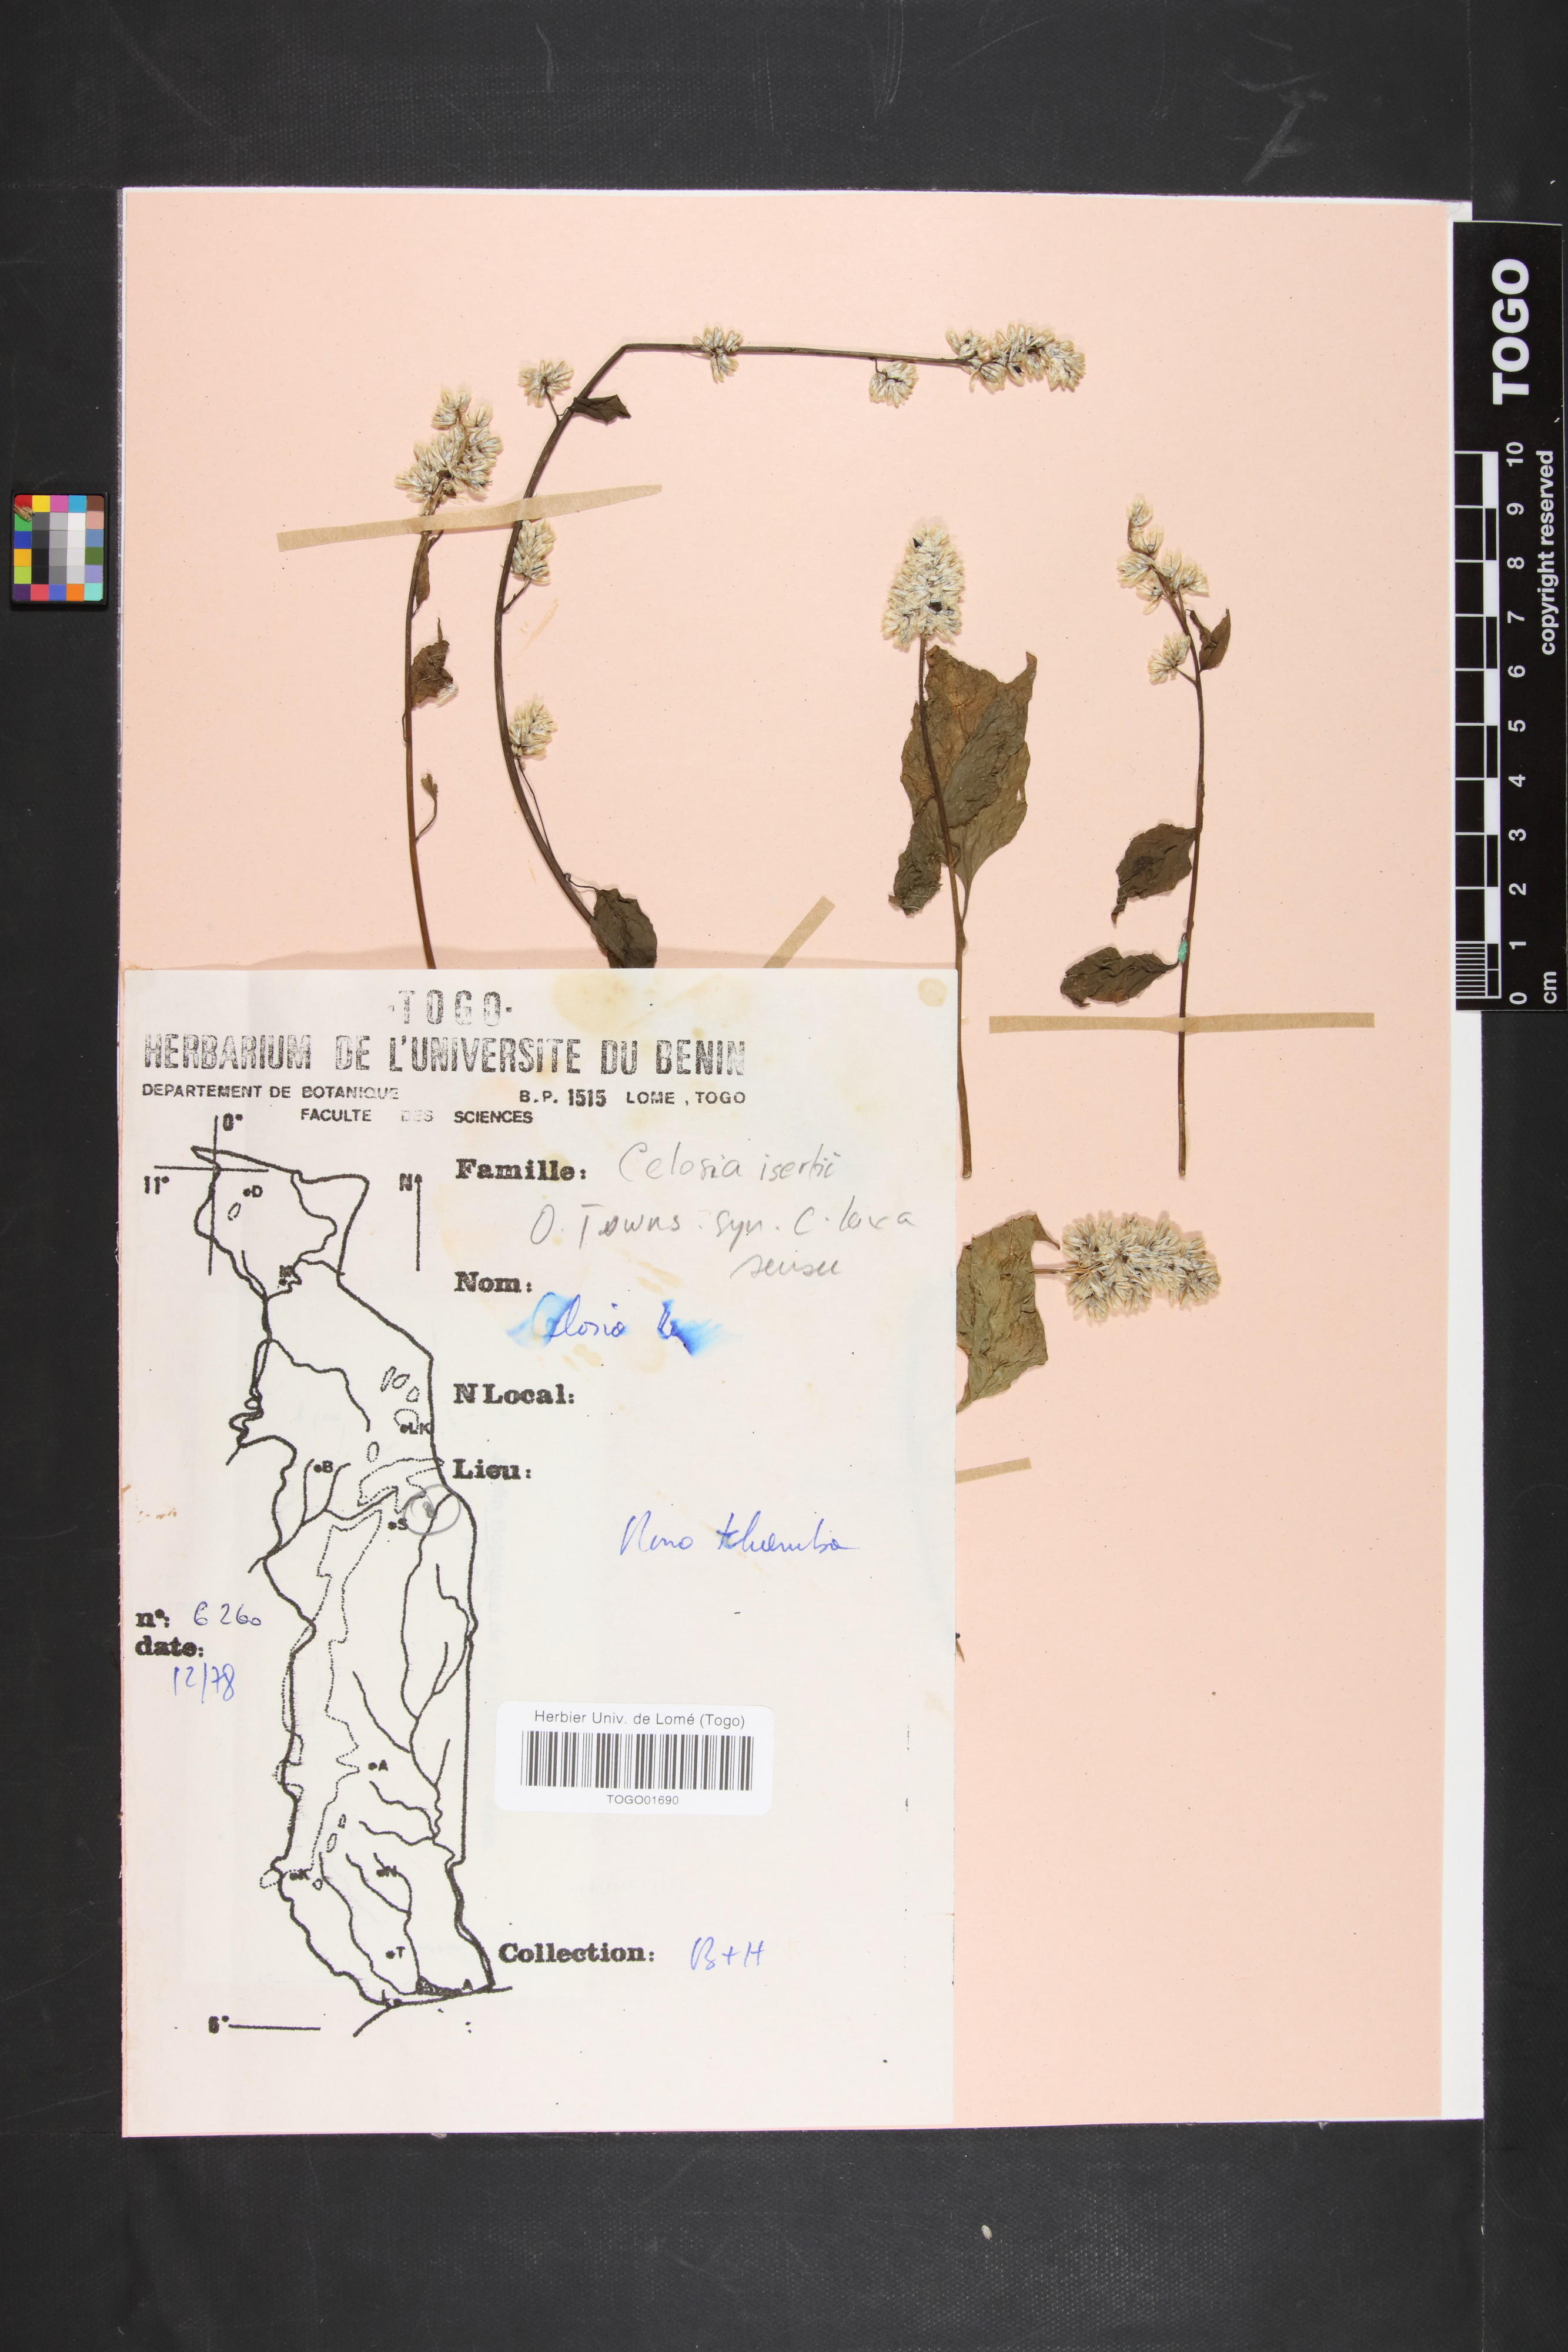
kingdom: Plantae
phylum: Tracheophyta
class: Magnoliopsida
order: Caryophyllales
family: Amaranthaceae
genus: Celosia
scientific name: Celosia isertii
